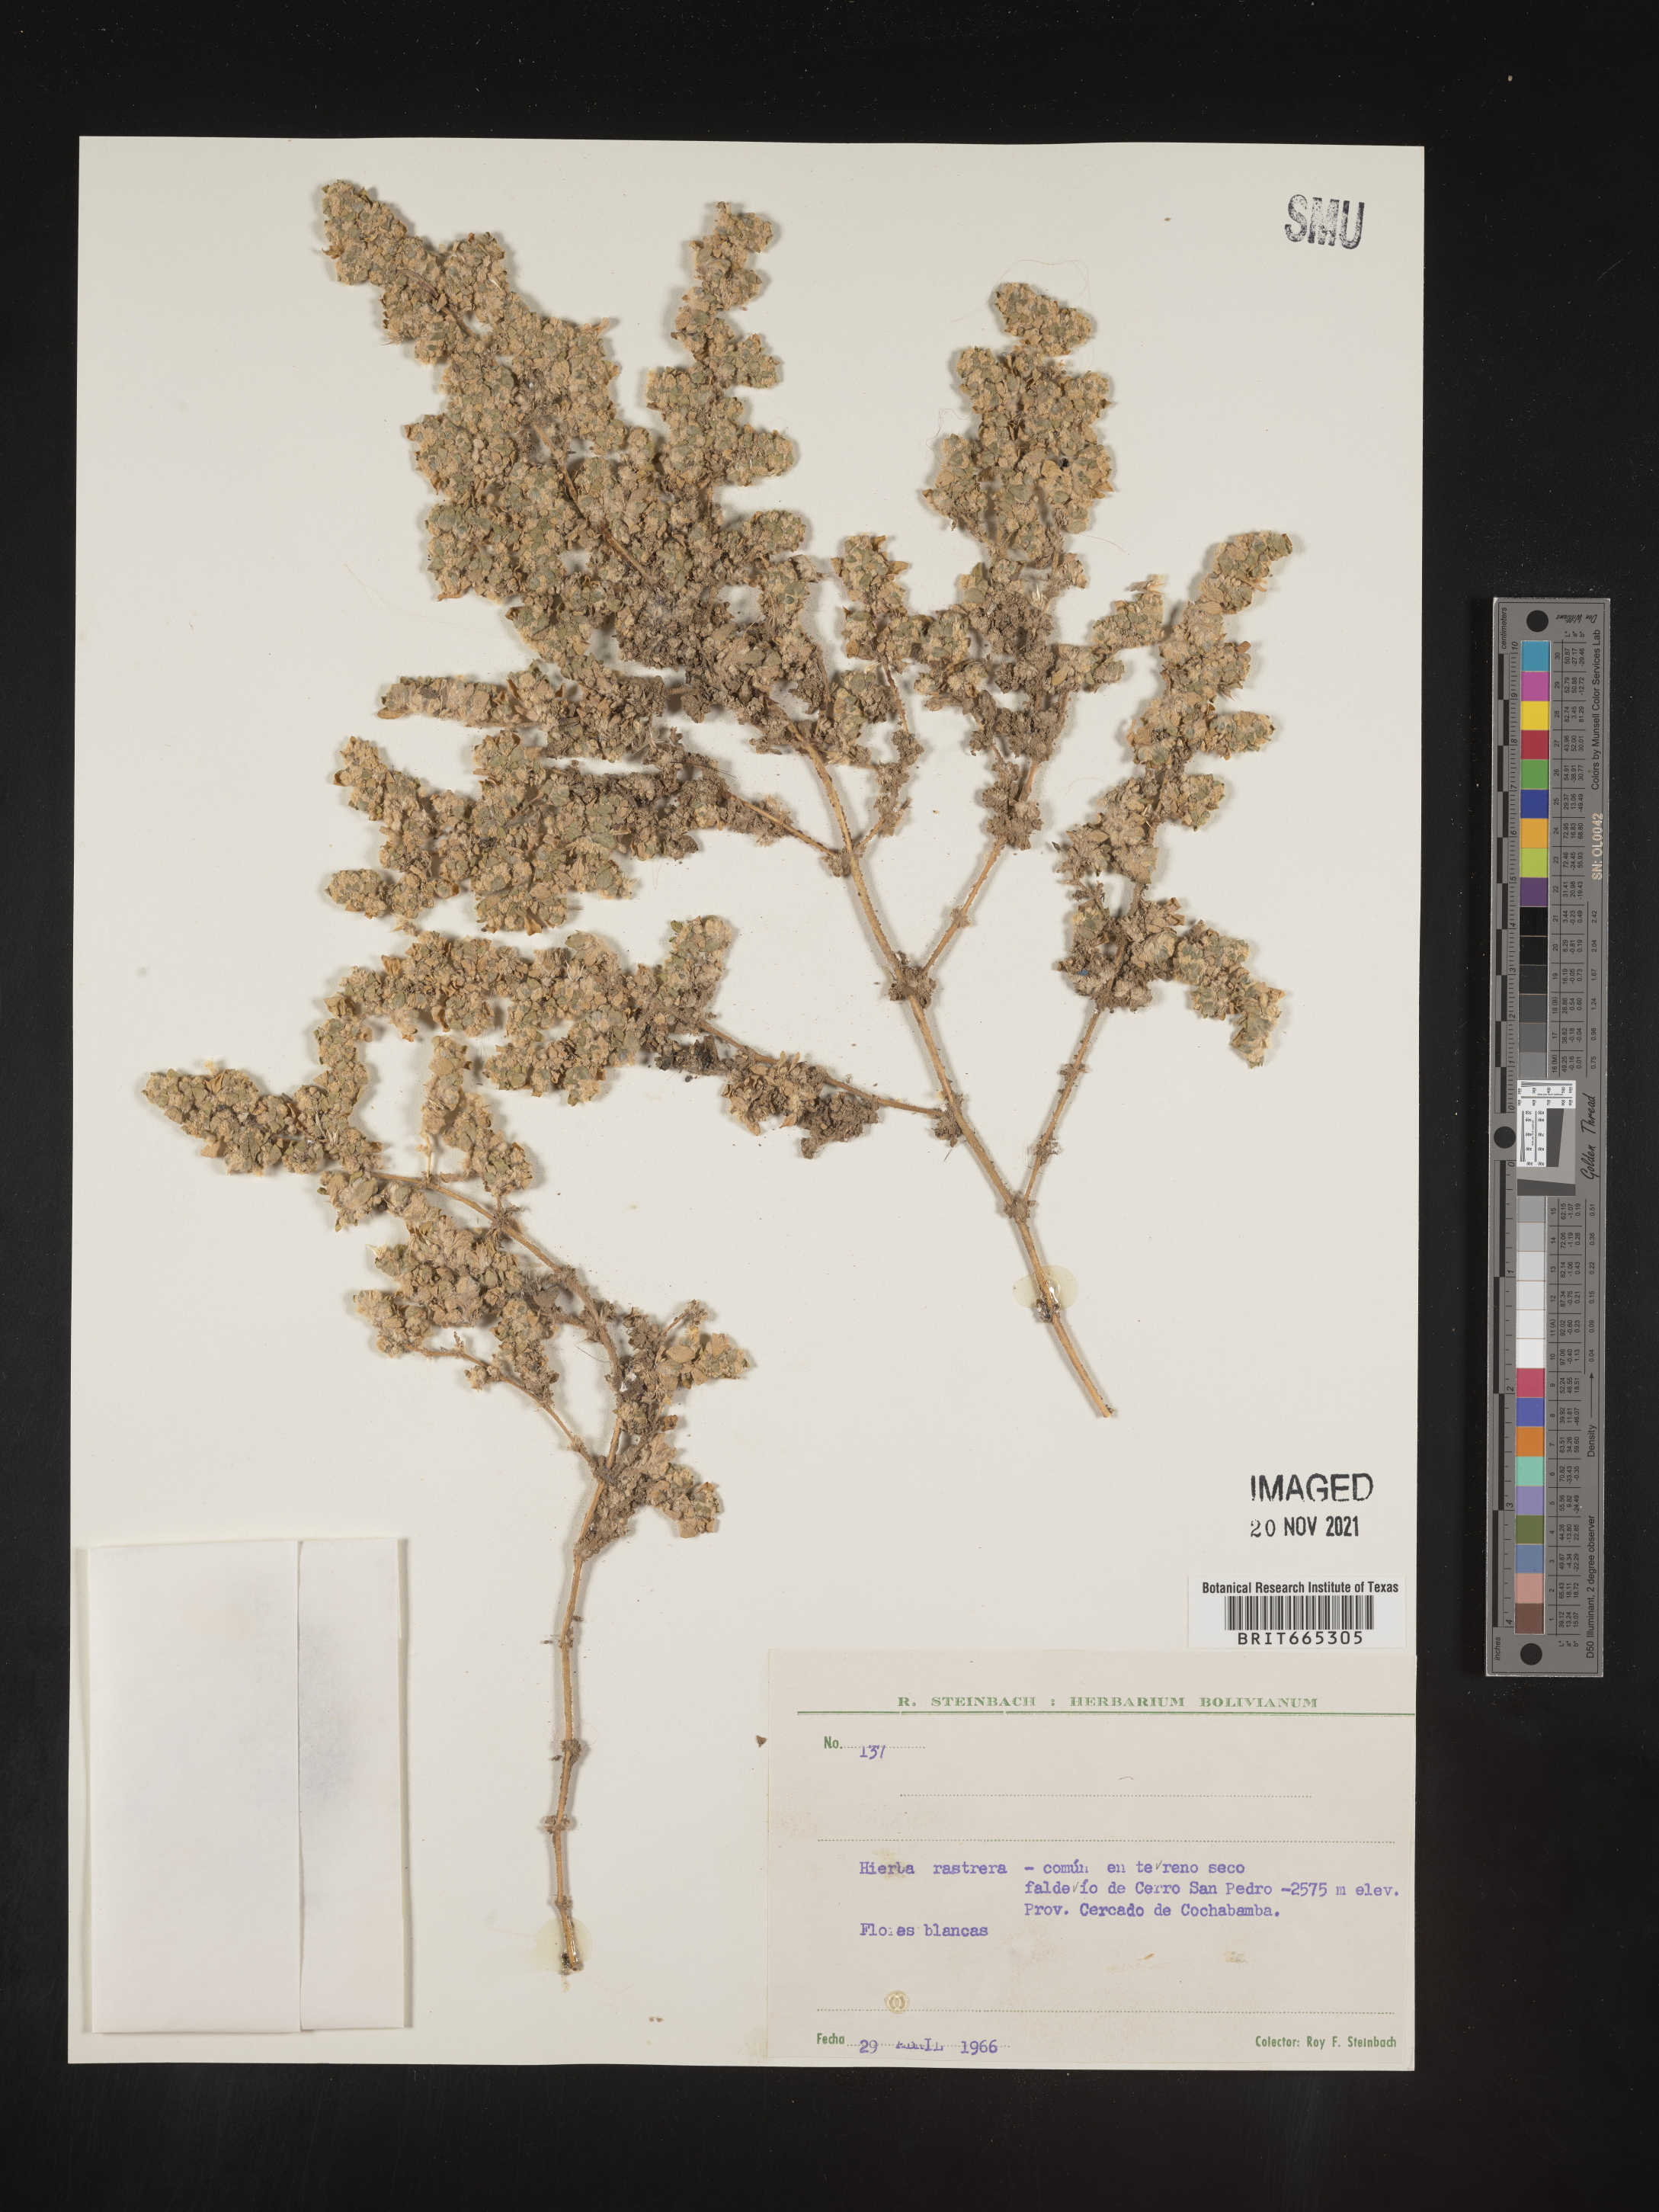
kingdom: Plantae
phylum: Tracheophyta
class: Magnoliopsida
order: Caryophyllales
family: Amaranthaceae
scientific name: Amaranthaceae
